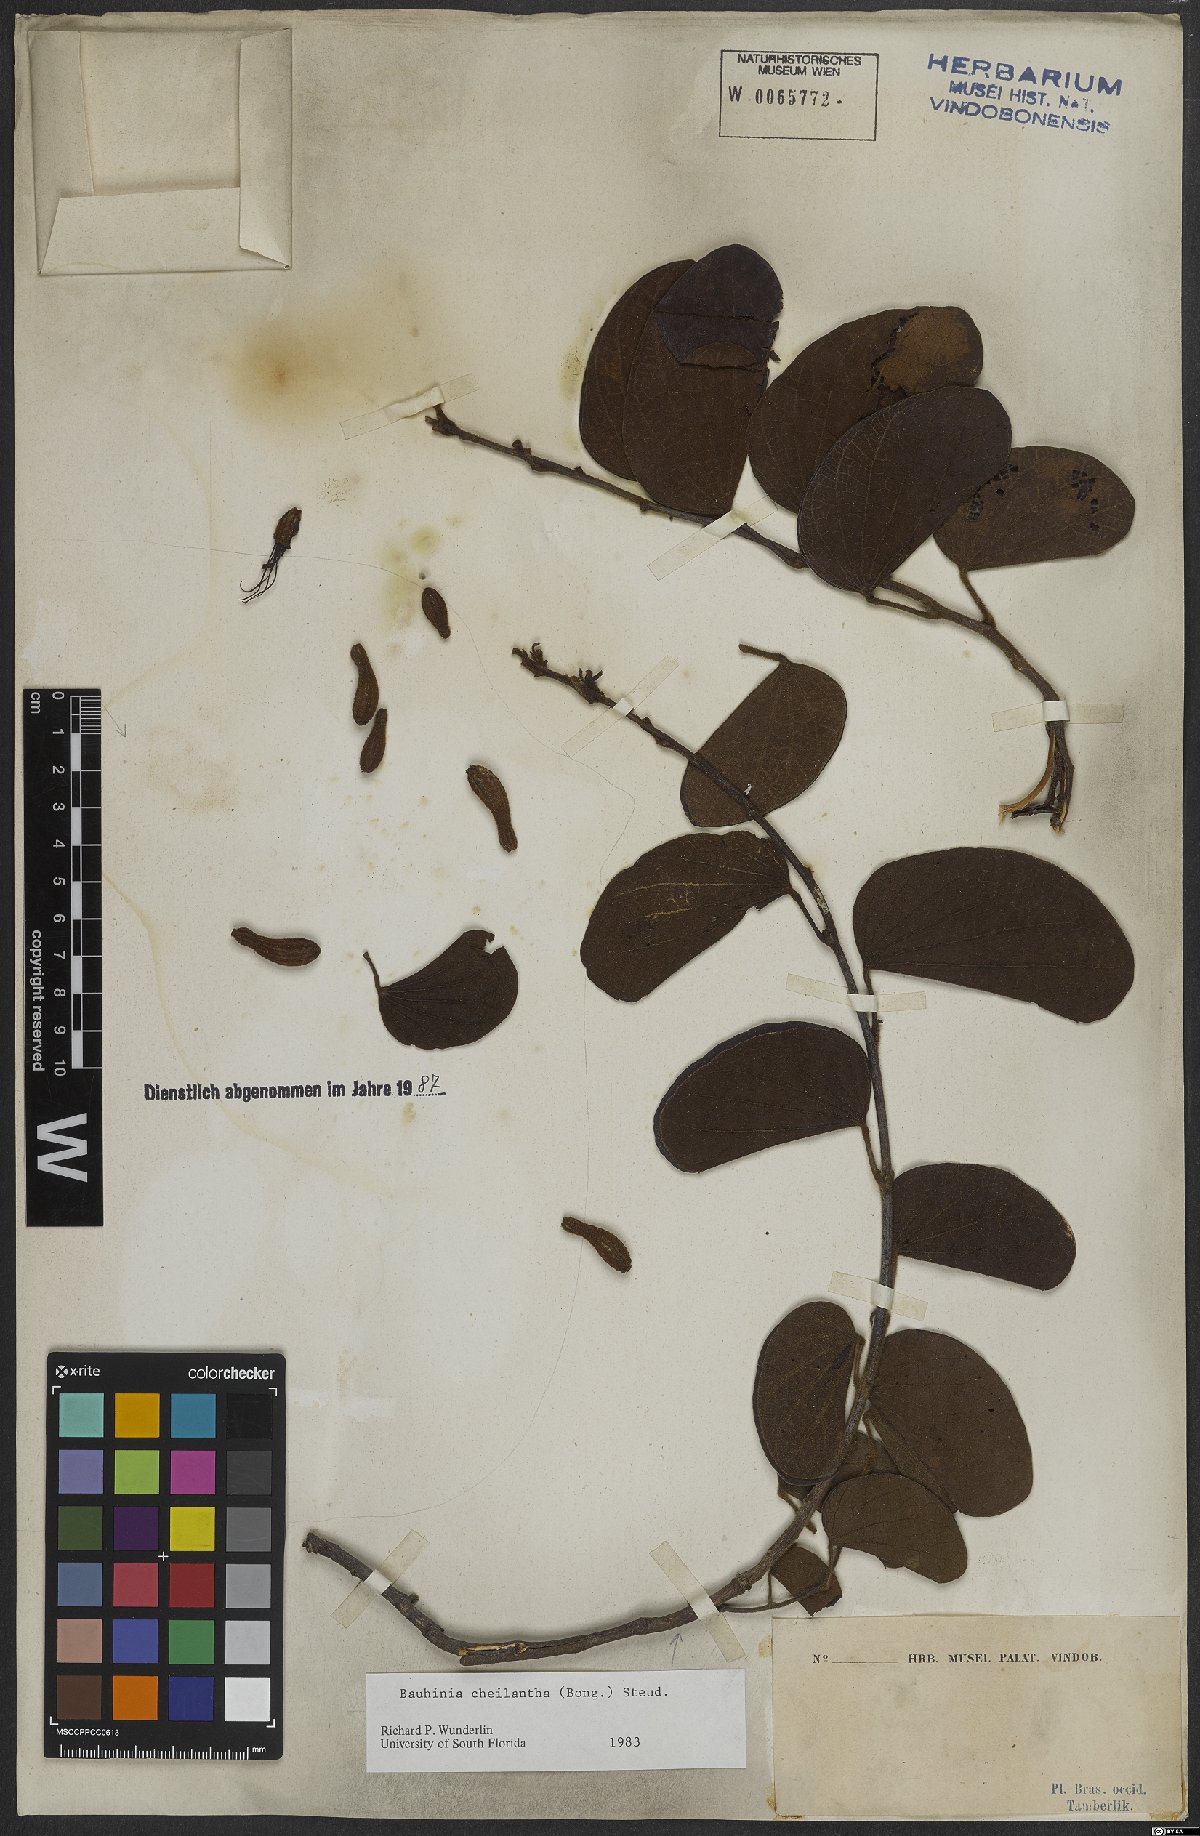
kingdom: Plantae
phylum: Tracheophyta
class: Magnoliopsida
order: Fabales
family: Fabaceae
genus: Bauhinia
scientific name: Bauhinia cheilantha
